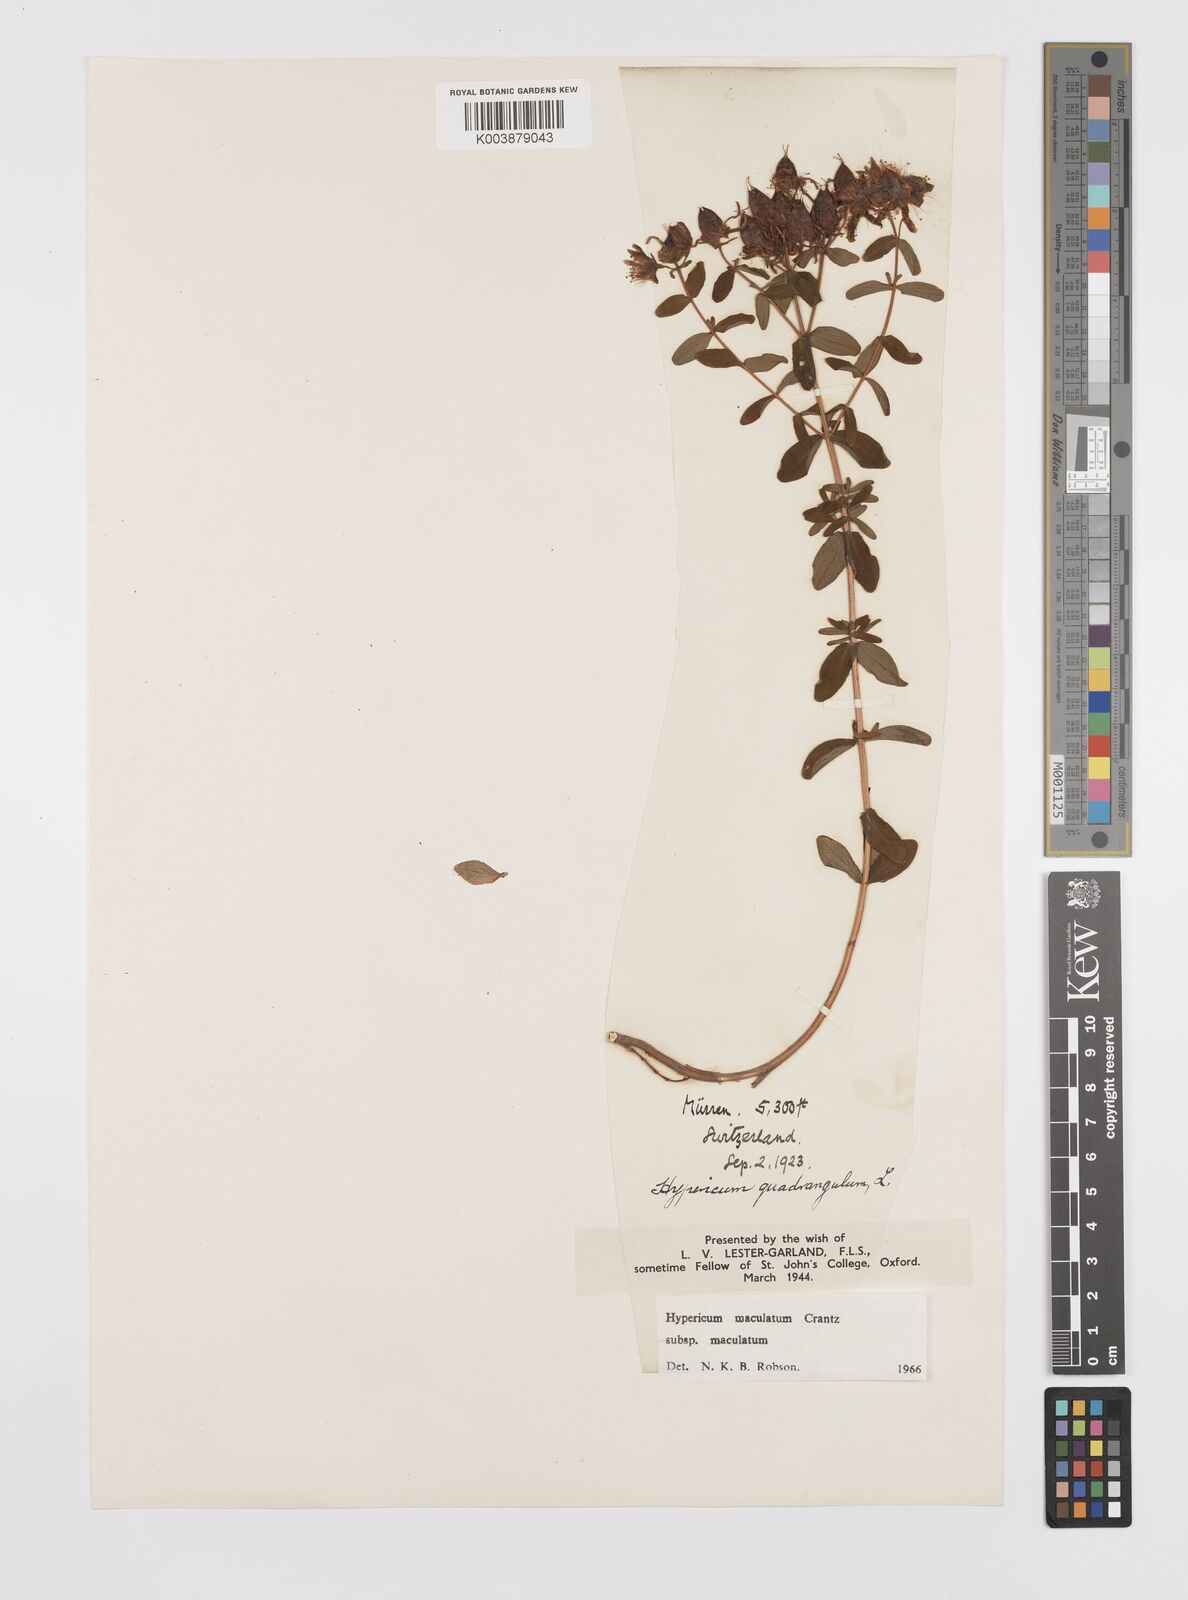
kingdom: Plantae
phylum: Tracheophyta
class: Magnoliopsida
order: Malpighiales
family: Hypericaceae
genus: Hypericum
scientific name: Hypericum maculatum
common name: Imperforate st. john's-wort
